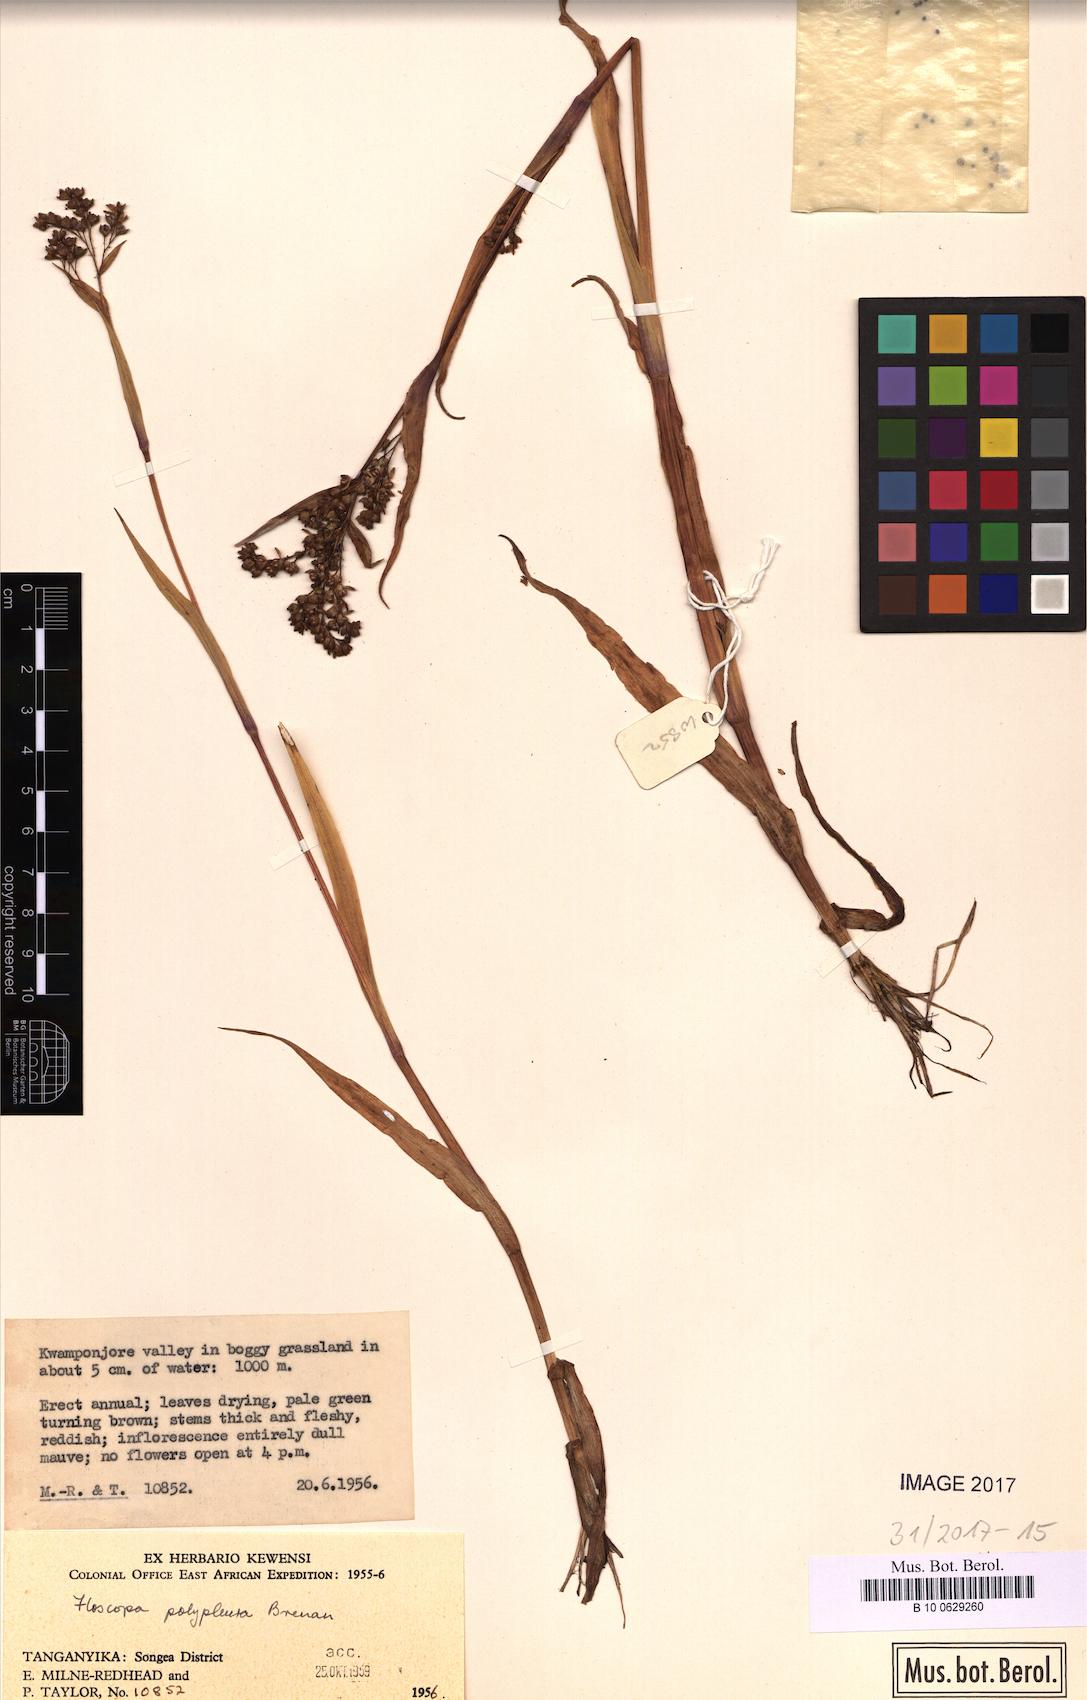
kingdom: Plantae
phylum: Tracheophyta
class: Liliopsida
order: Commelinales
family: Commelinaceae
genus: Floscopa
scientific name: Floscopa polypleura
